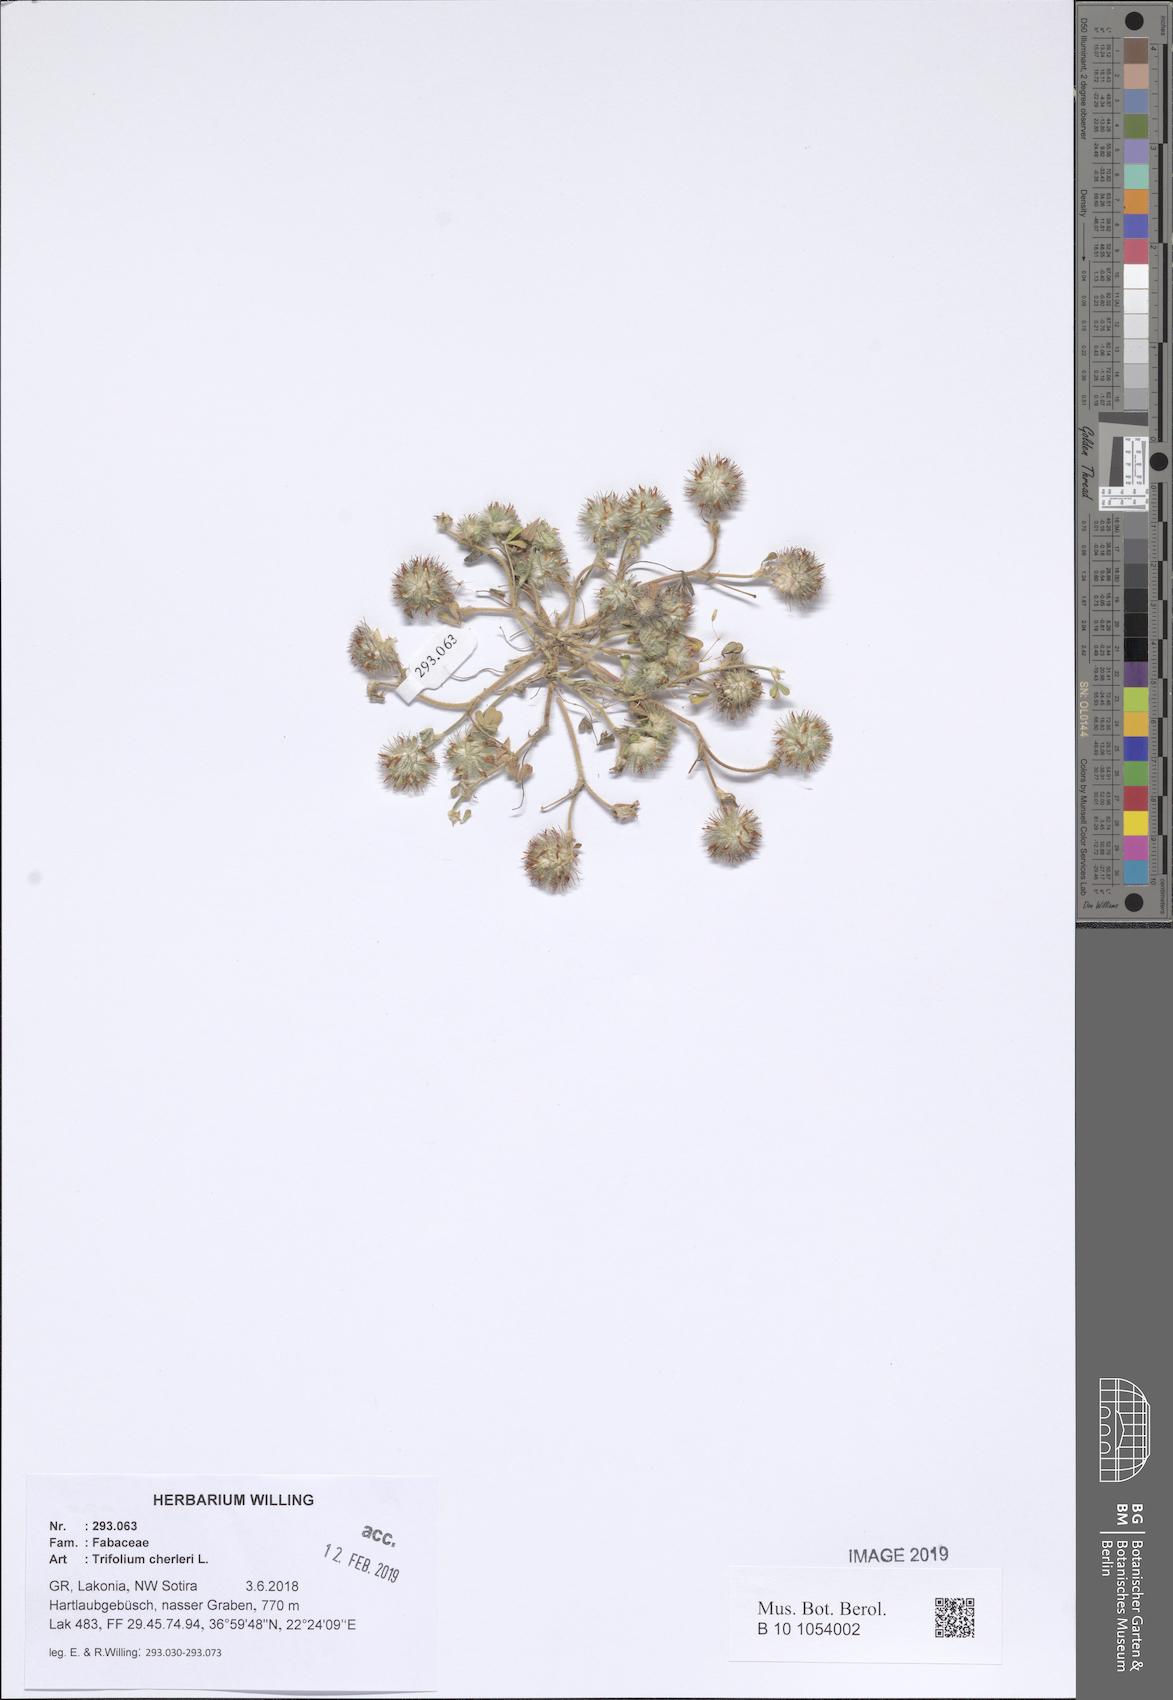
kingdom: Plantae
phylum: Tracheophyta
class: Magnoliopsida
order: Fabales
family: Fabaceae
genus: Trifolium
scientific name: Trifolium cherleri
